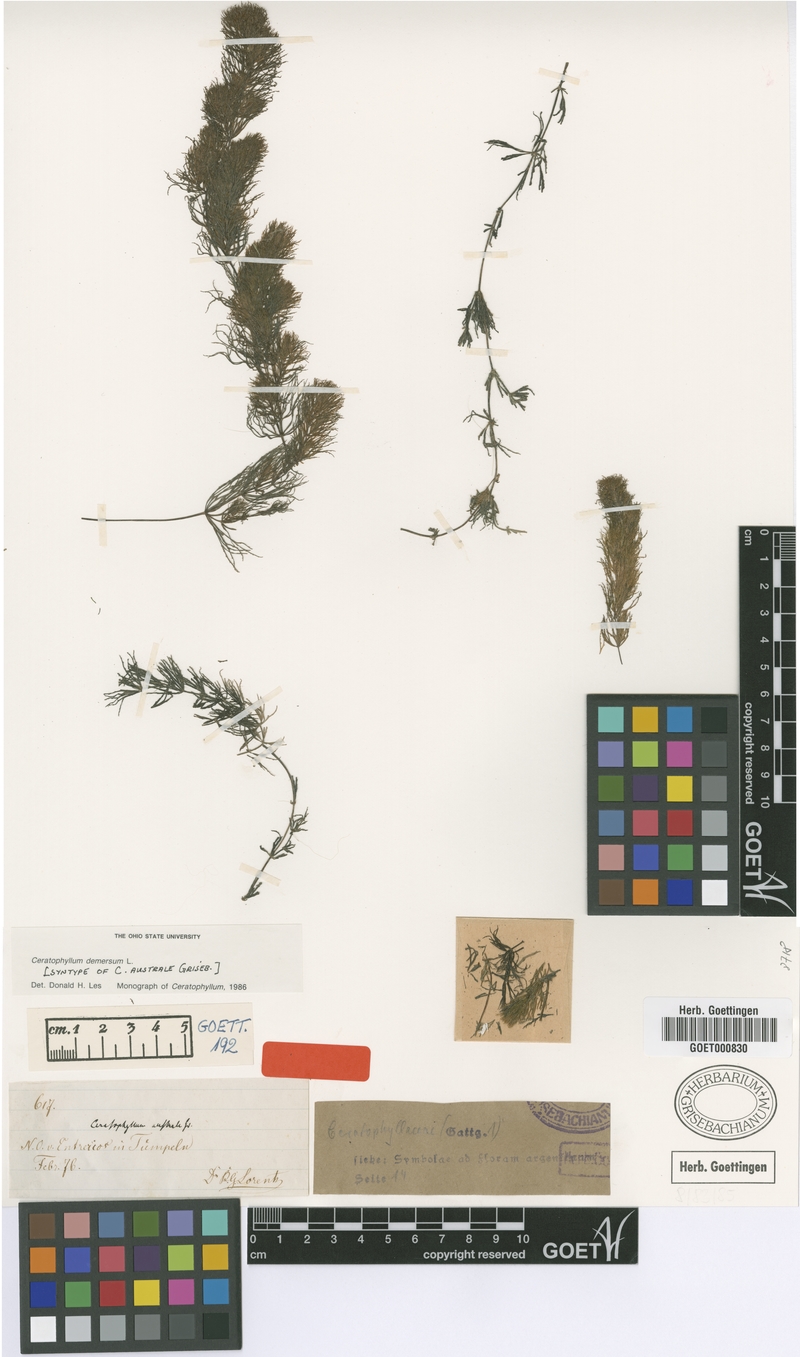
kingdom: Plantae
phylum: Tracheophyta
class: Magnoliopsida
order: Ceratophyllales
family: Ceratophyllaceae
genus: Ceratophyllum
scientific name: Ceratophyllum demersum
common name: Rigid hornwort
